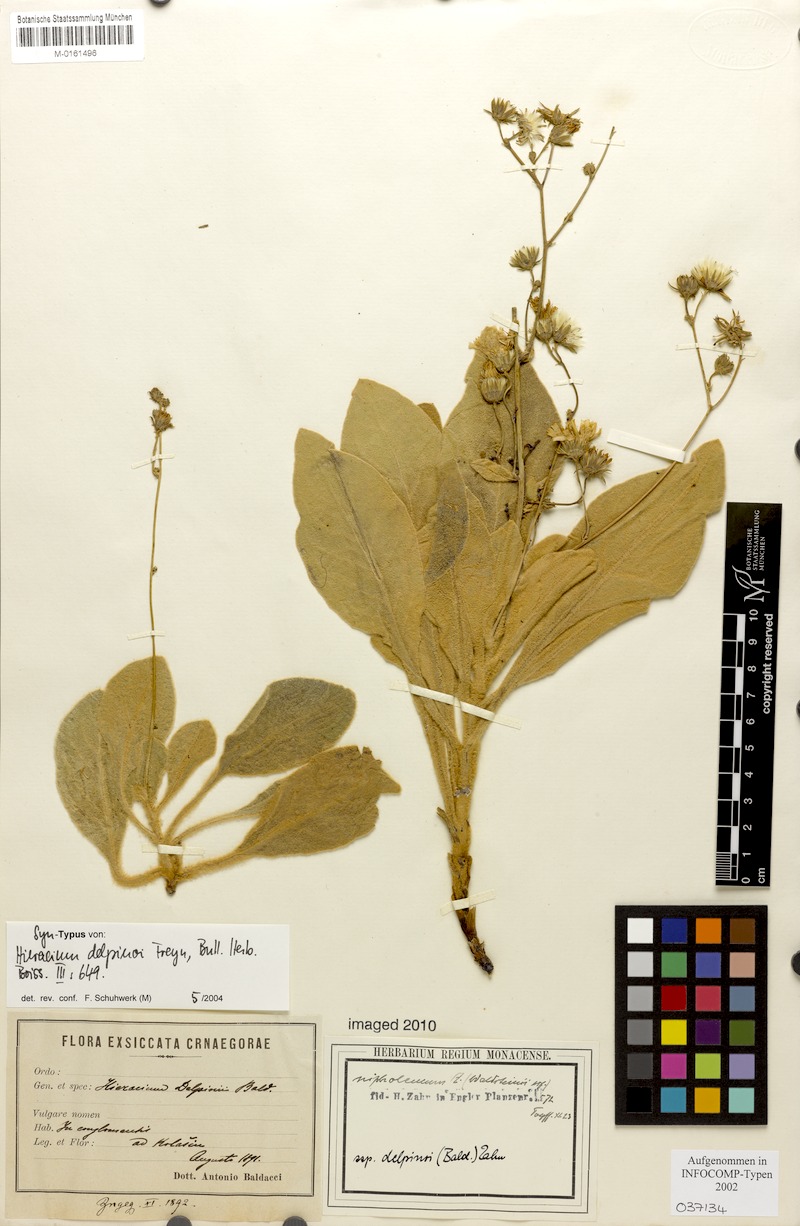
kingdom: Plantae
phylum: Tracheophyta
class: Magnoliopsida
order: Asterales
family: Asteraceae
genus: Hieracium
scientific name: Hieracium waldsteinii
